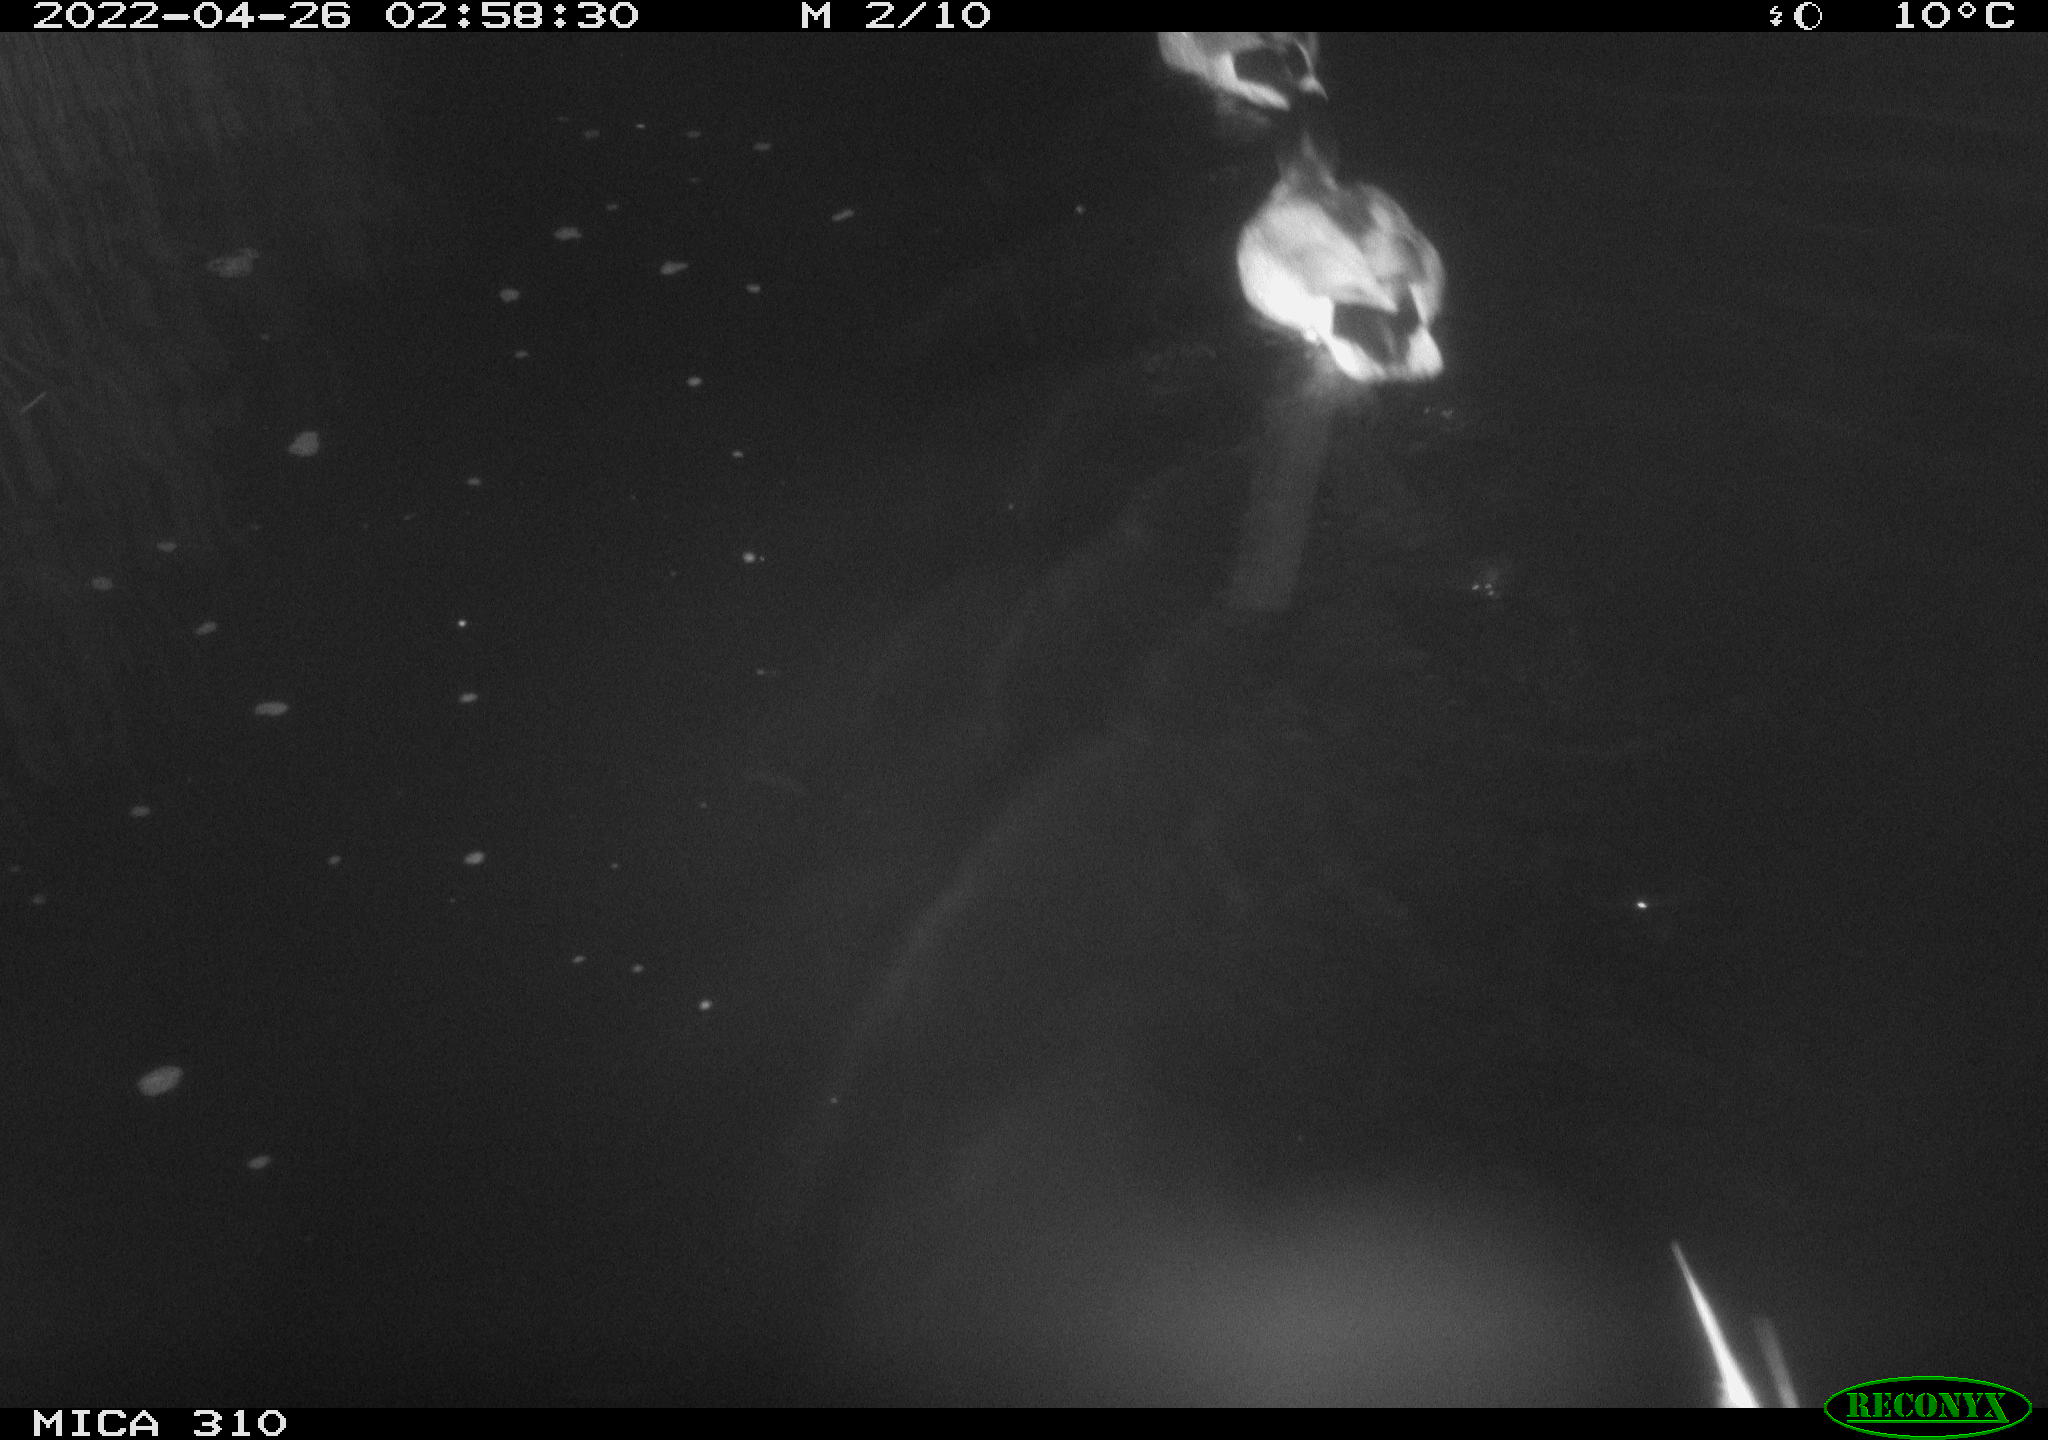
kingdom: Animalia
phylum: Chordata
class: Aves
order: Anseriformes
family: Anatidae
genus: Anas
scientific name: Anas platyrhynchos
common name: Mallard
